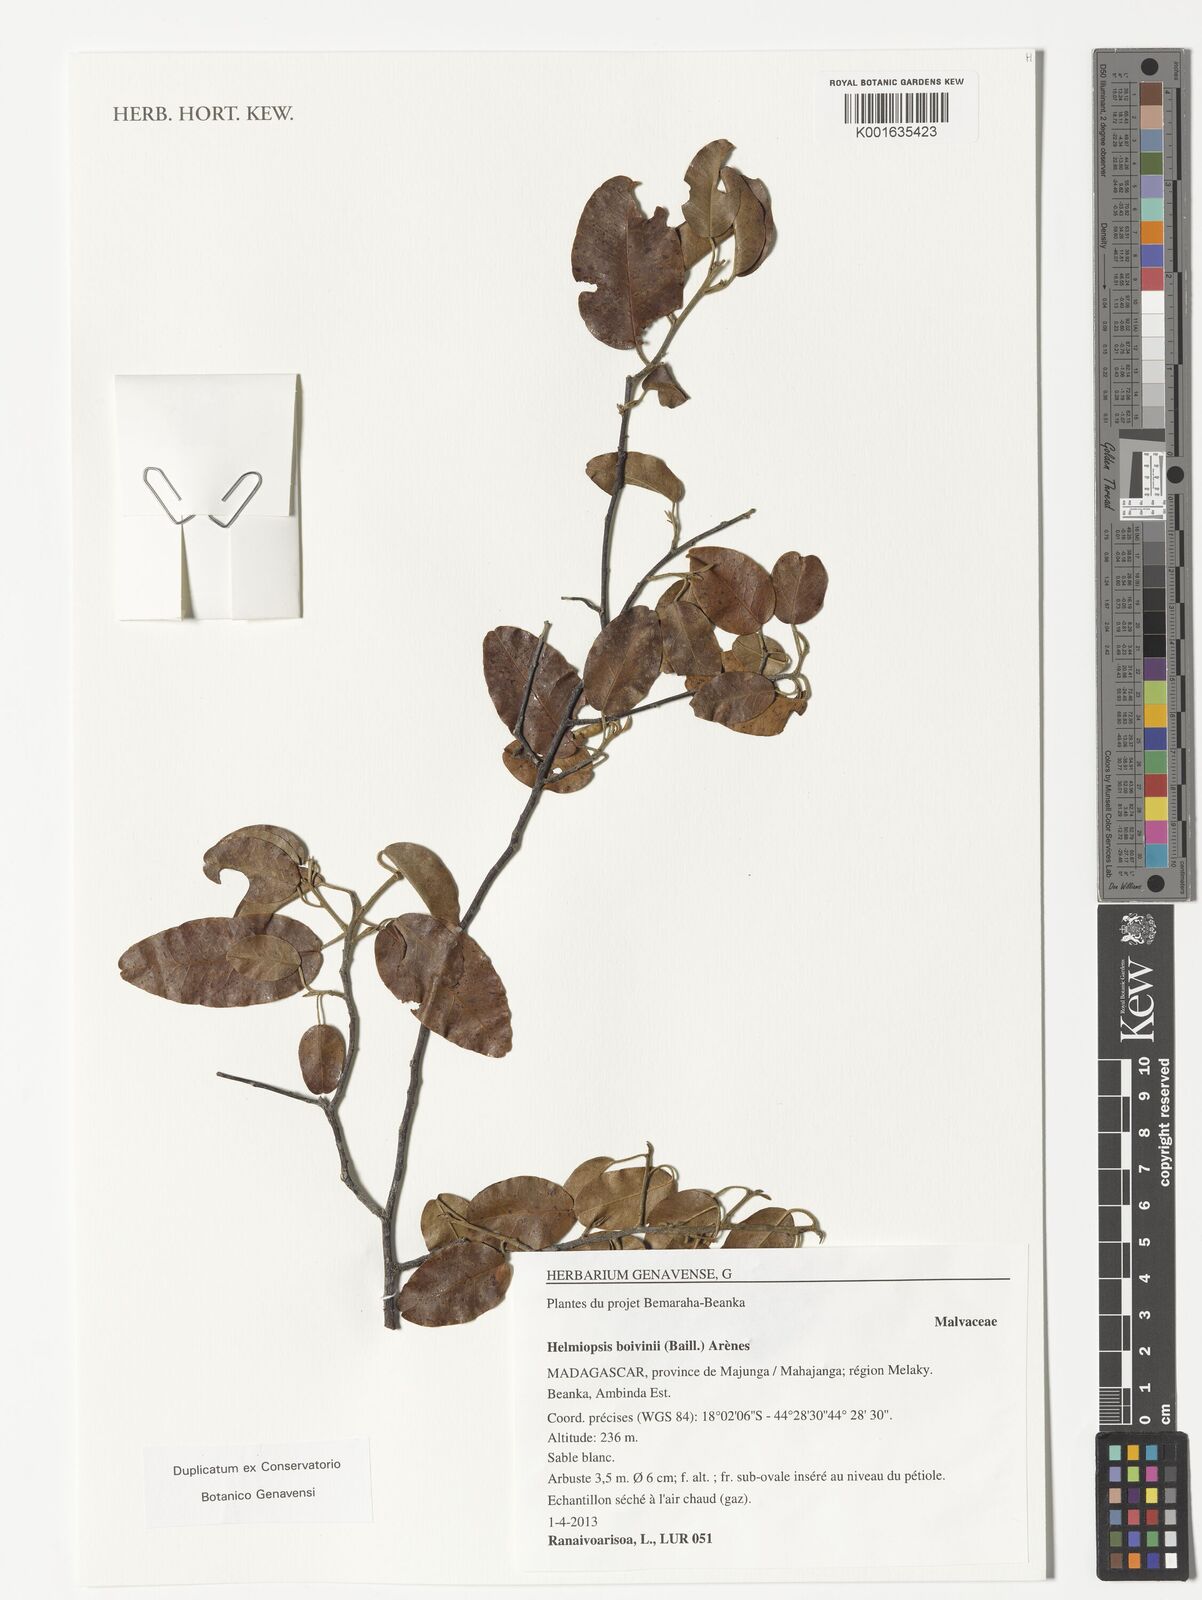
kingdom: Plantae
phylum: Tracheophyta
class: Magnoliopsida
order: Malvales
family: Malvaceae
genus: Eriolaena
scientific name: Eriolaena boivinii
